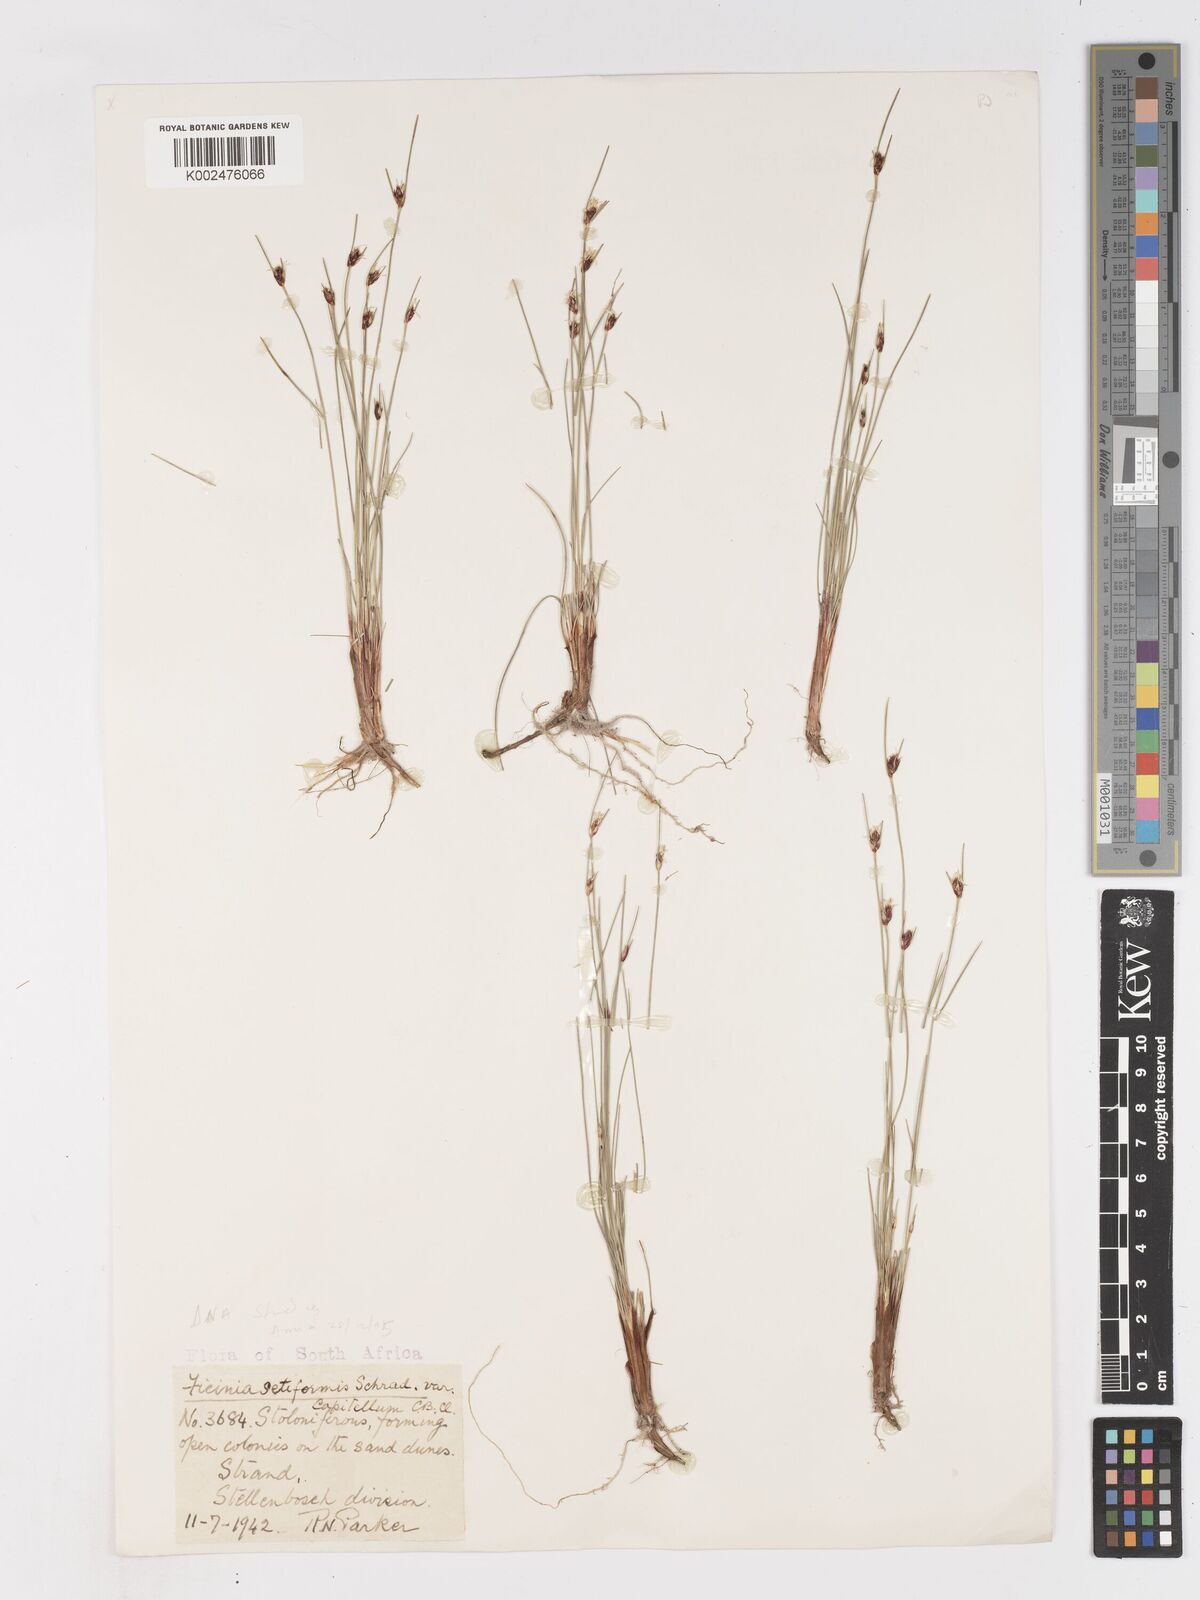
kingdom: Plantae
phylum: Tracheophyta
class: Liliopsida
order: Poales
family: Cyperaceae
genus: Ficinia
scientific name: Ficinia indica
